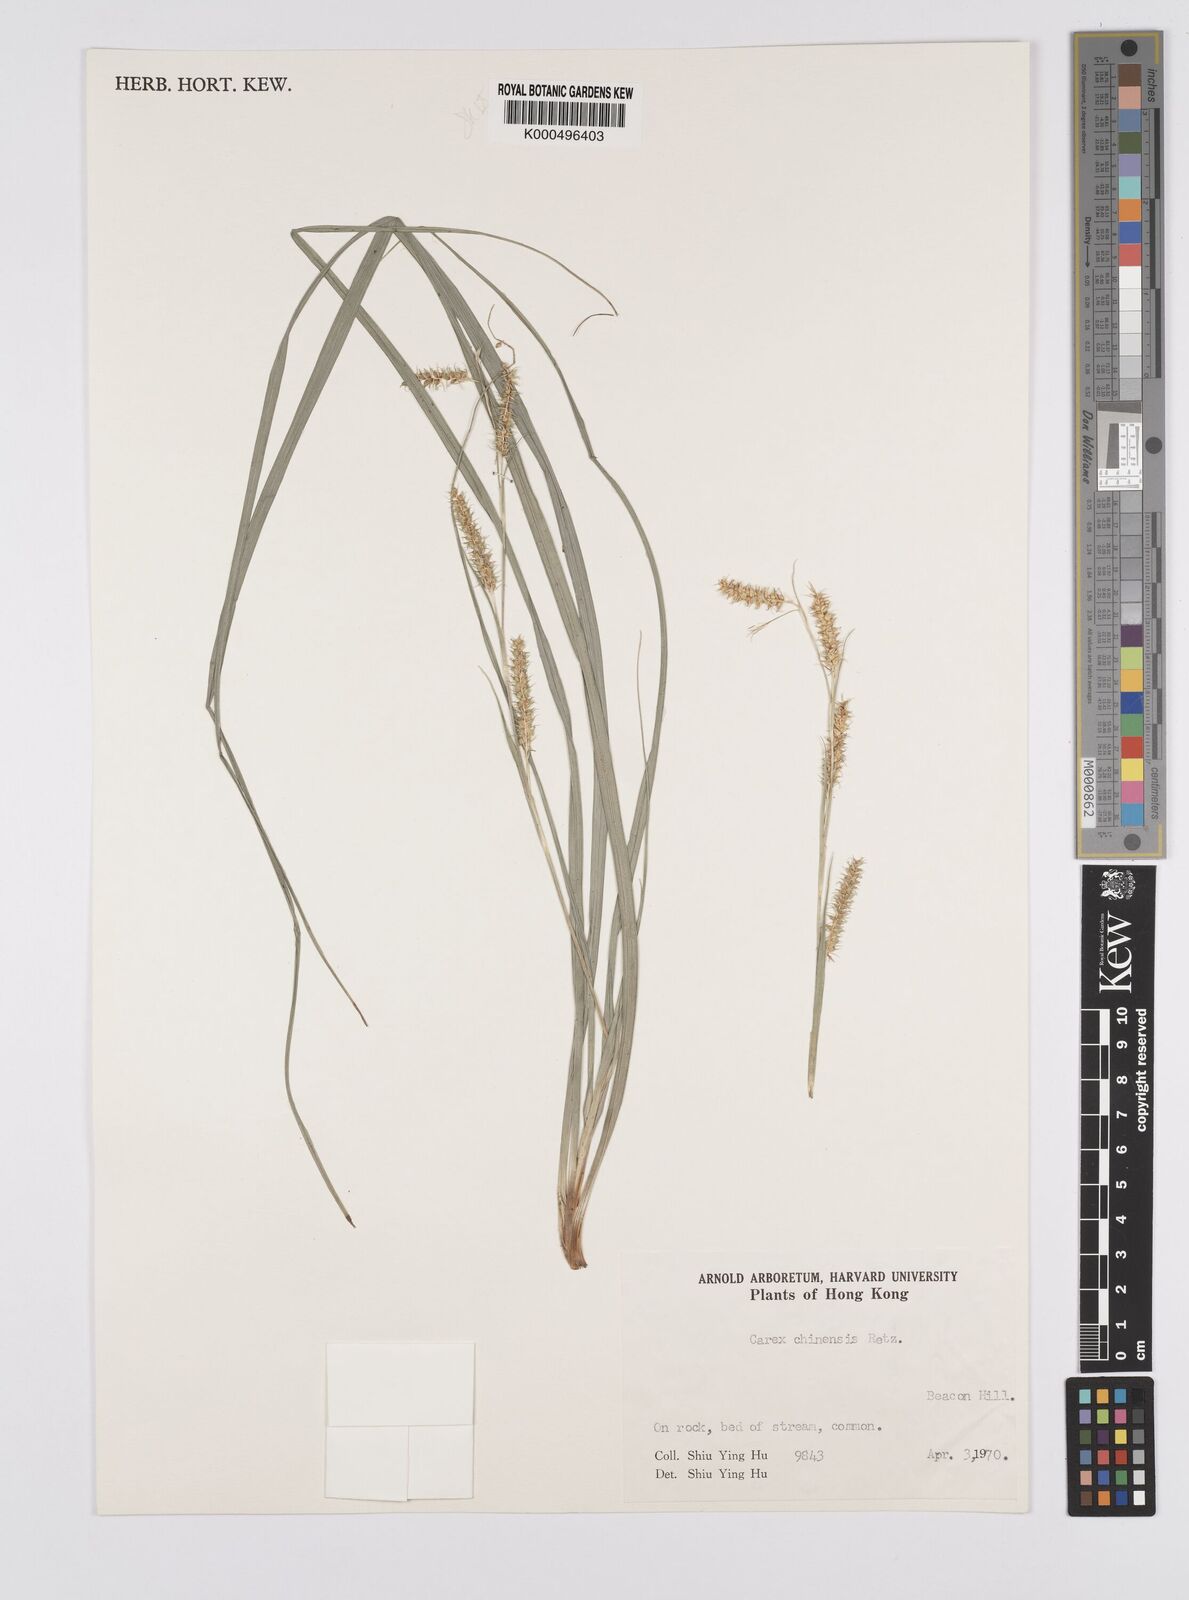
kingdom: Plantae
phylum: Tracheophyta
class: Liliopsida
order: Poales
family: Cyperaceae
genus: Carex
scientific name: Carex chinensis
